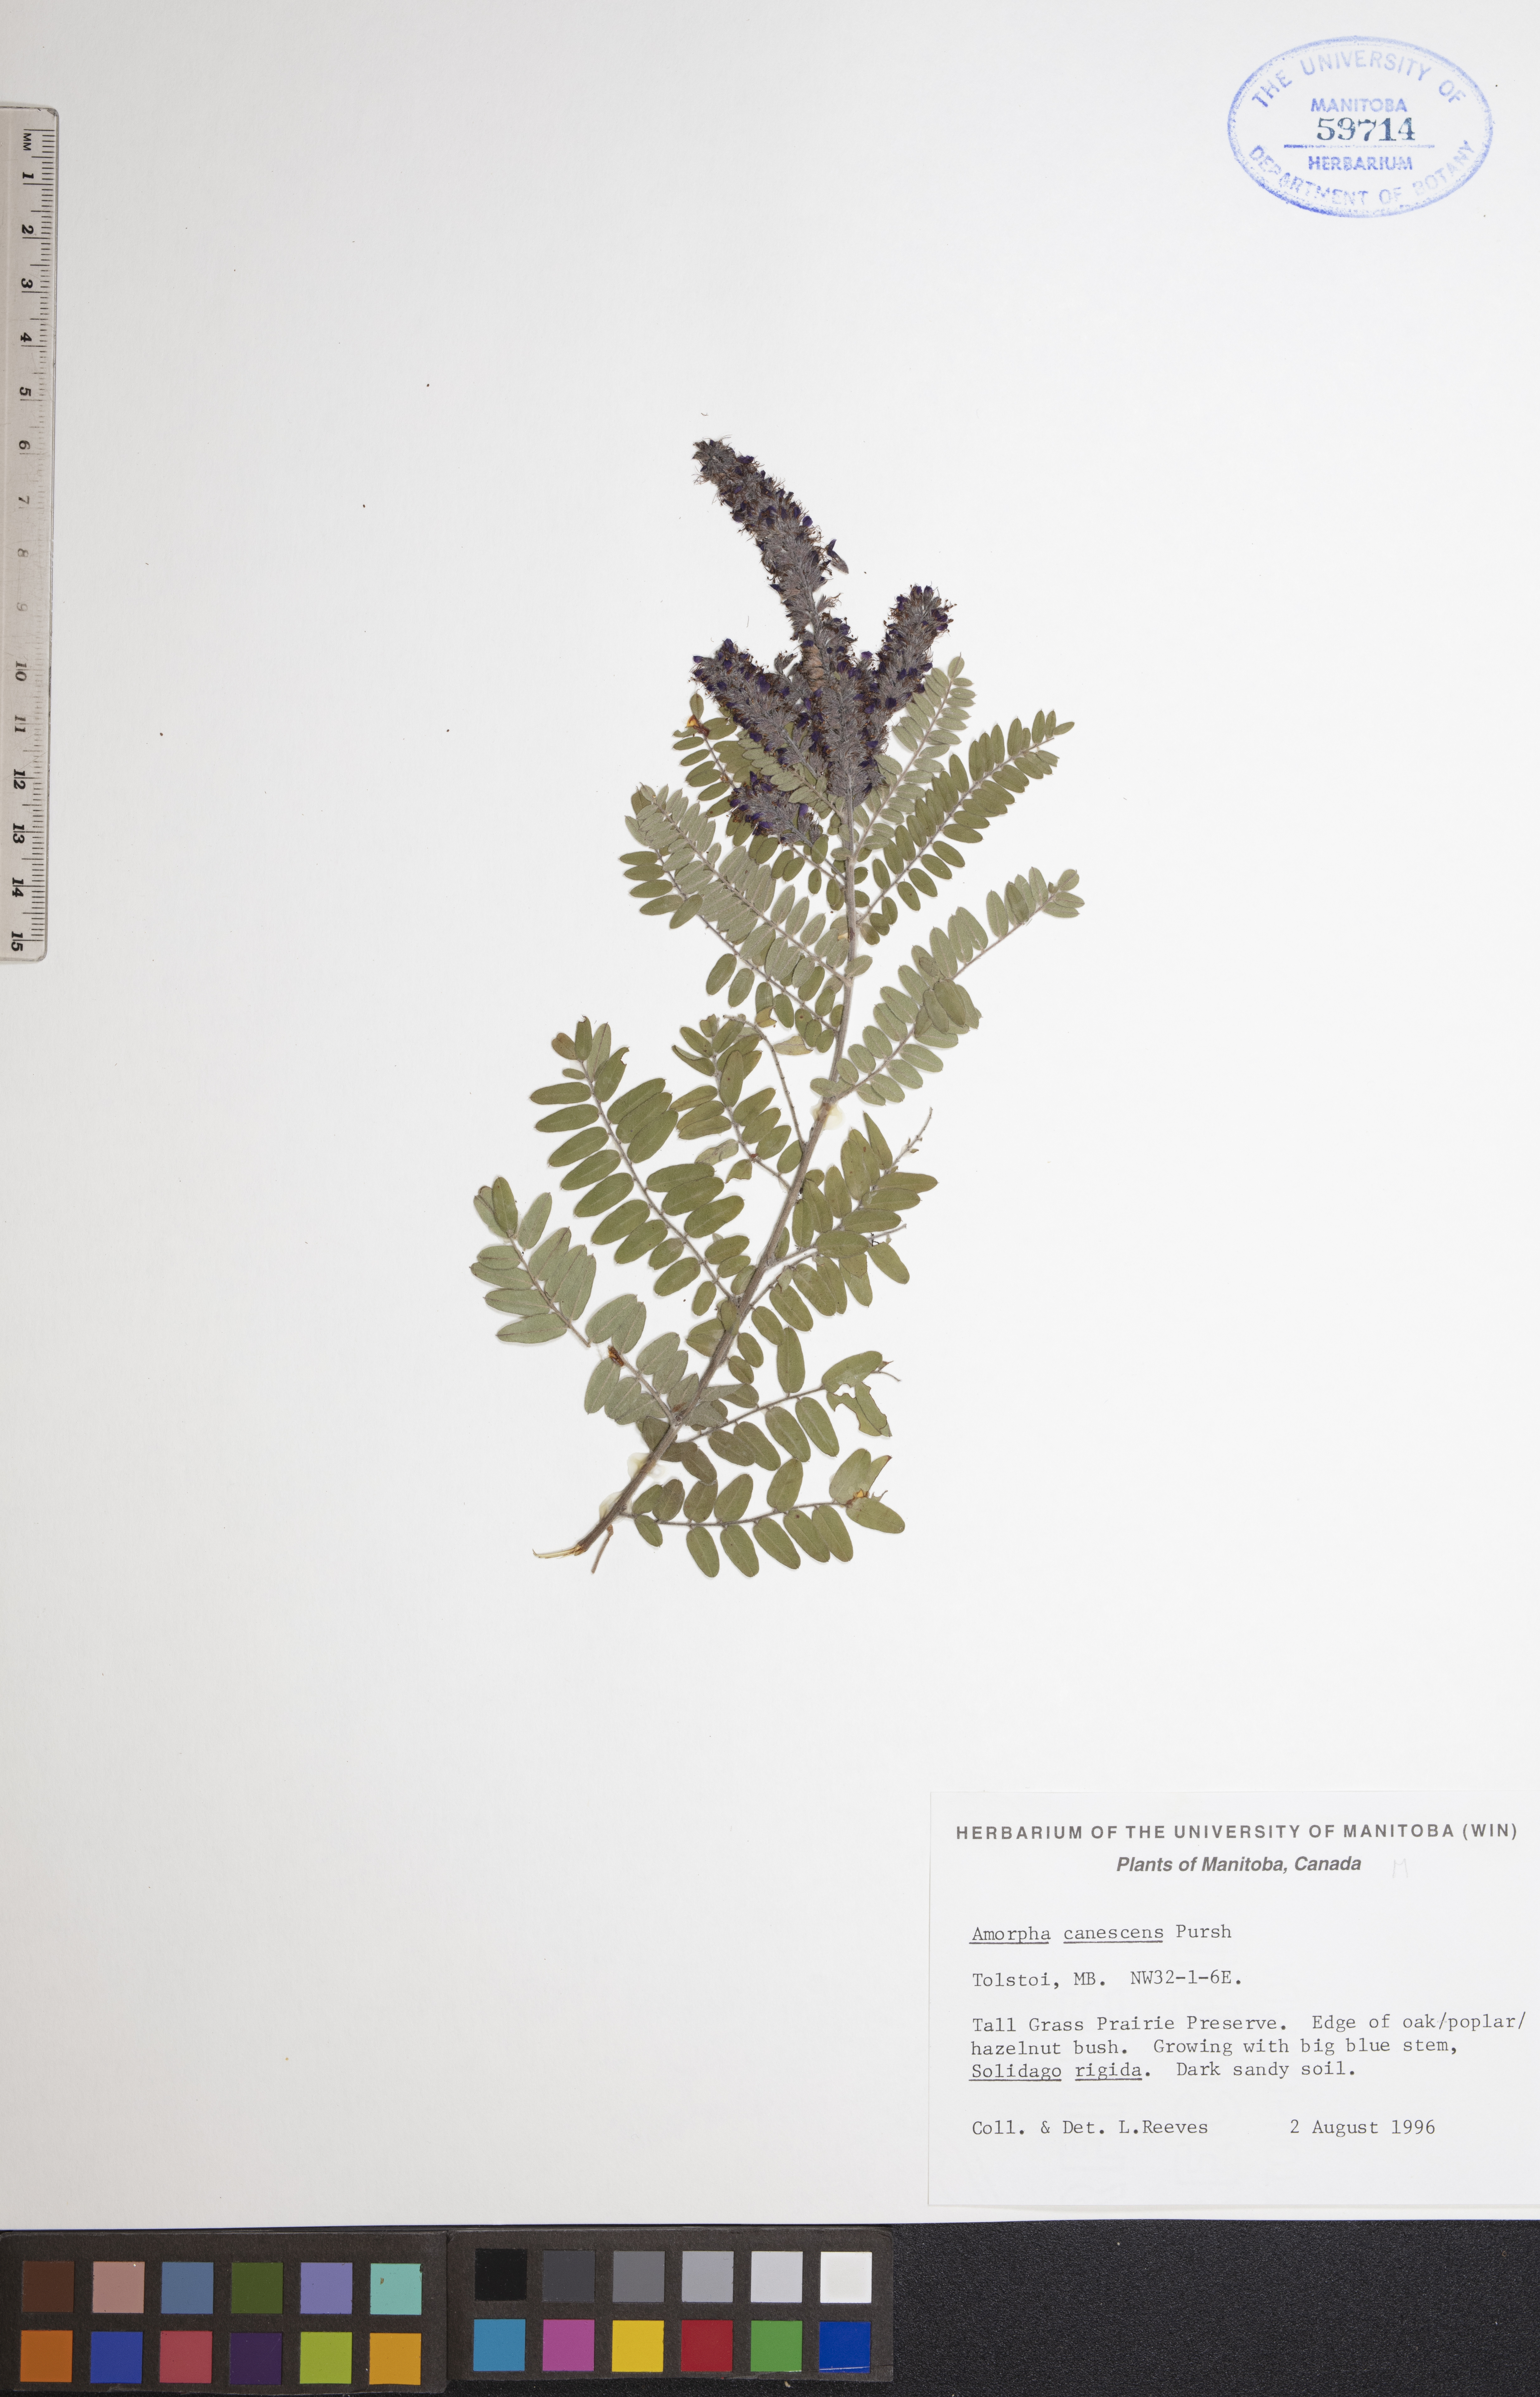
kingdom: Plantae
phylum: Tracheophyta
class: Magnoliopsida
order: Fabales
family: Fabaceae
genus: Amorpha
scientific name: Amorpha canescens
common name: Leadplant
